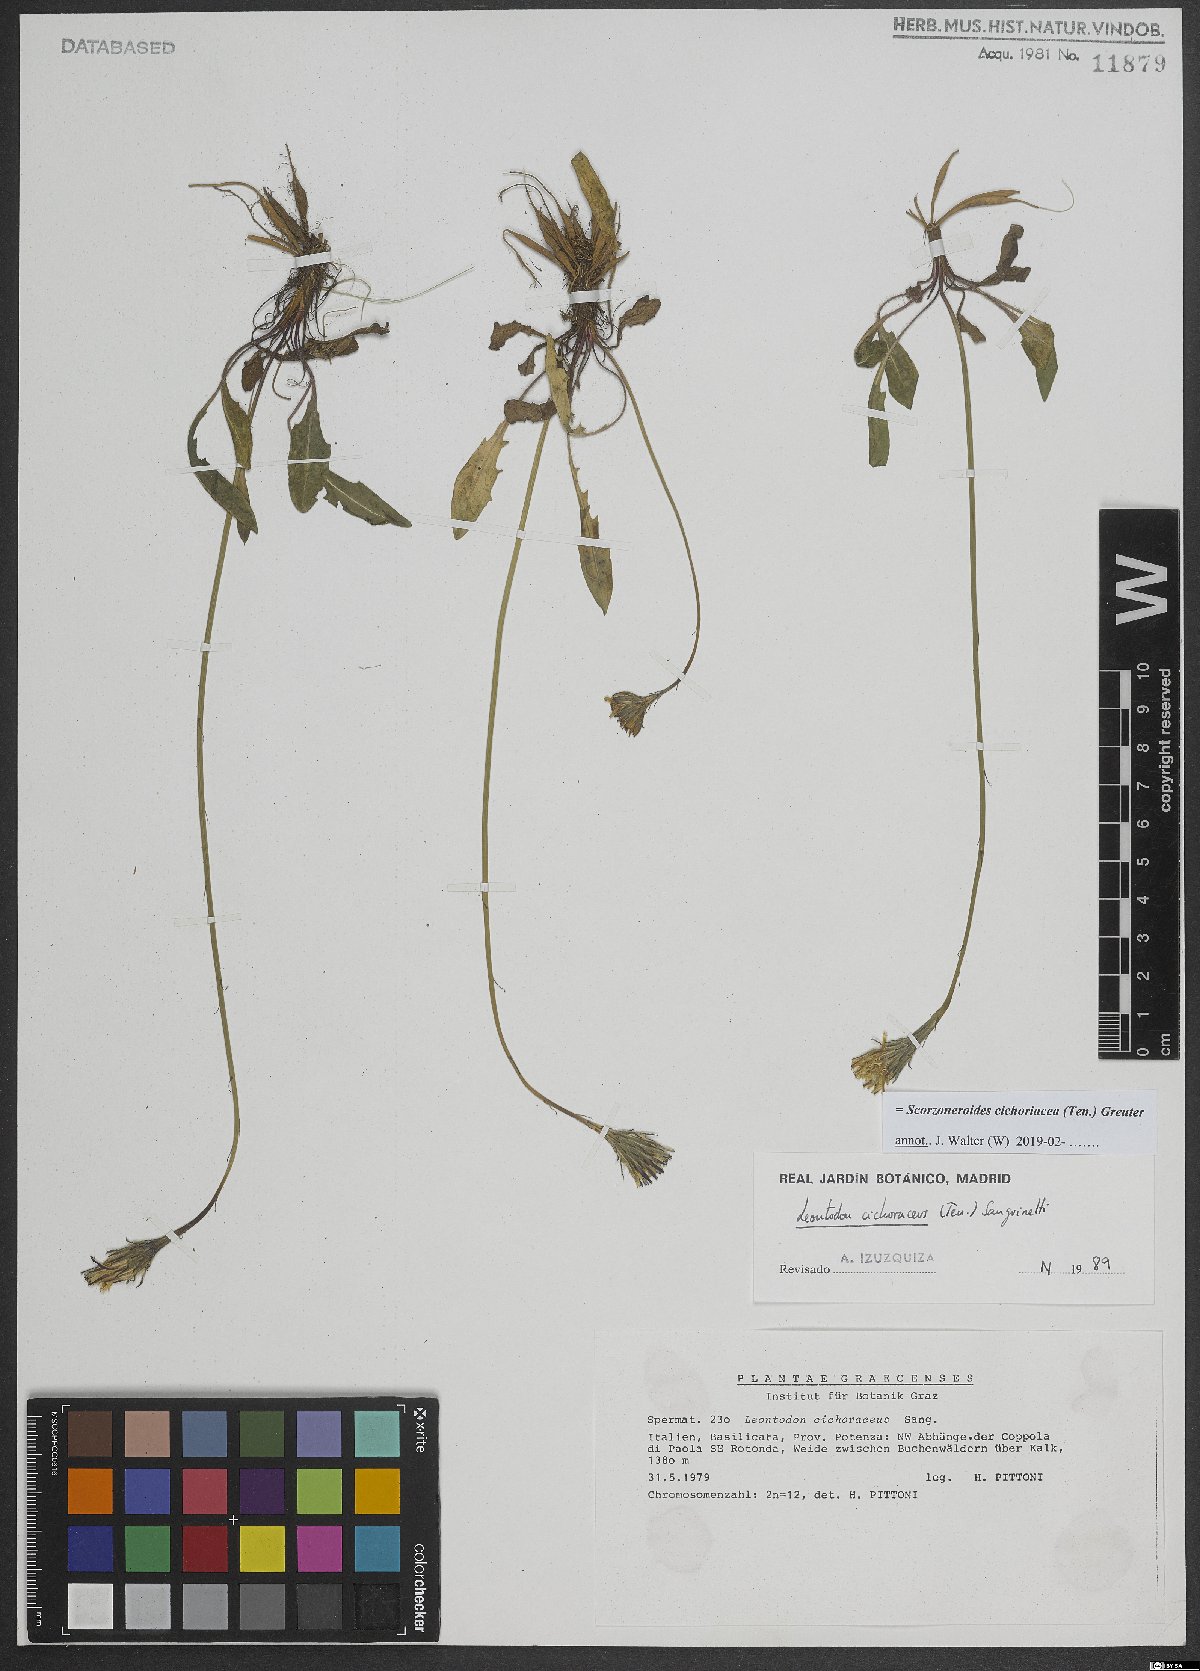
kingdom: Plantae
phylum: Tracheophyta
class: Magnoliopsida
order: Asterales
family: Asteraceae
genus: Scorzoneroides
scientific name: Scorzoneroides cichoriacea
